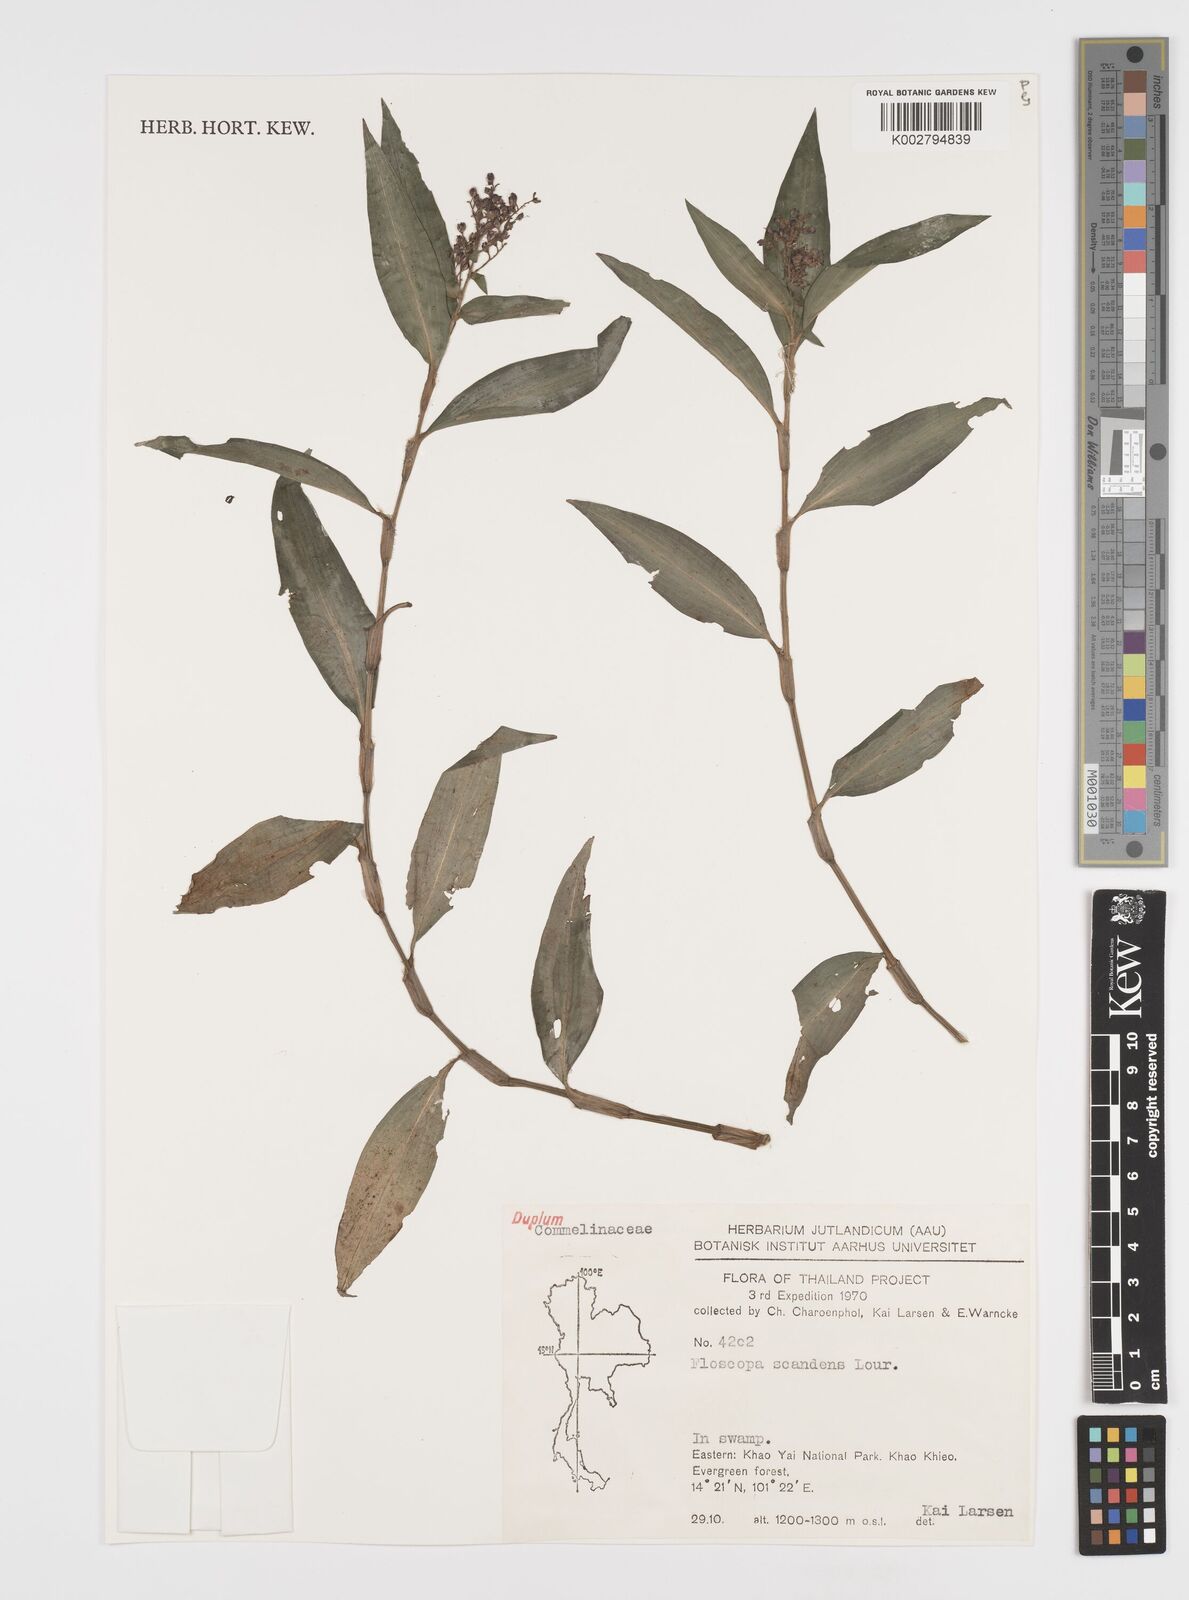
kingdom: Plantae
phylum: Tracheophyta
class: Liliopsida
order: Commelinales
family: Commelinaceae
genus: Floscopa
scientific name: Floscopa scandens
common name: Climbing flower cup
